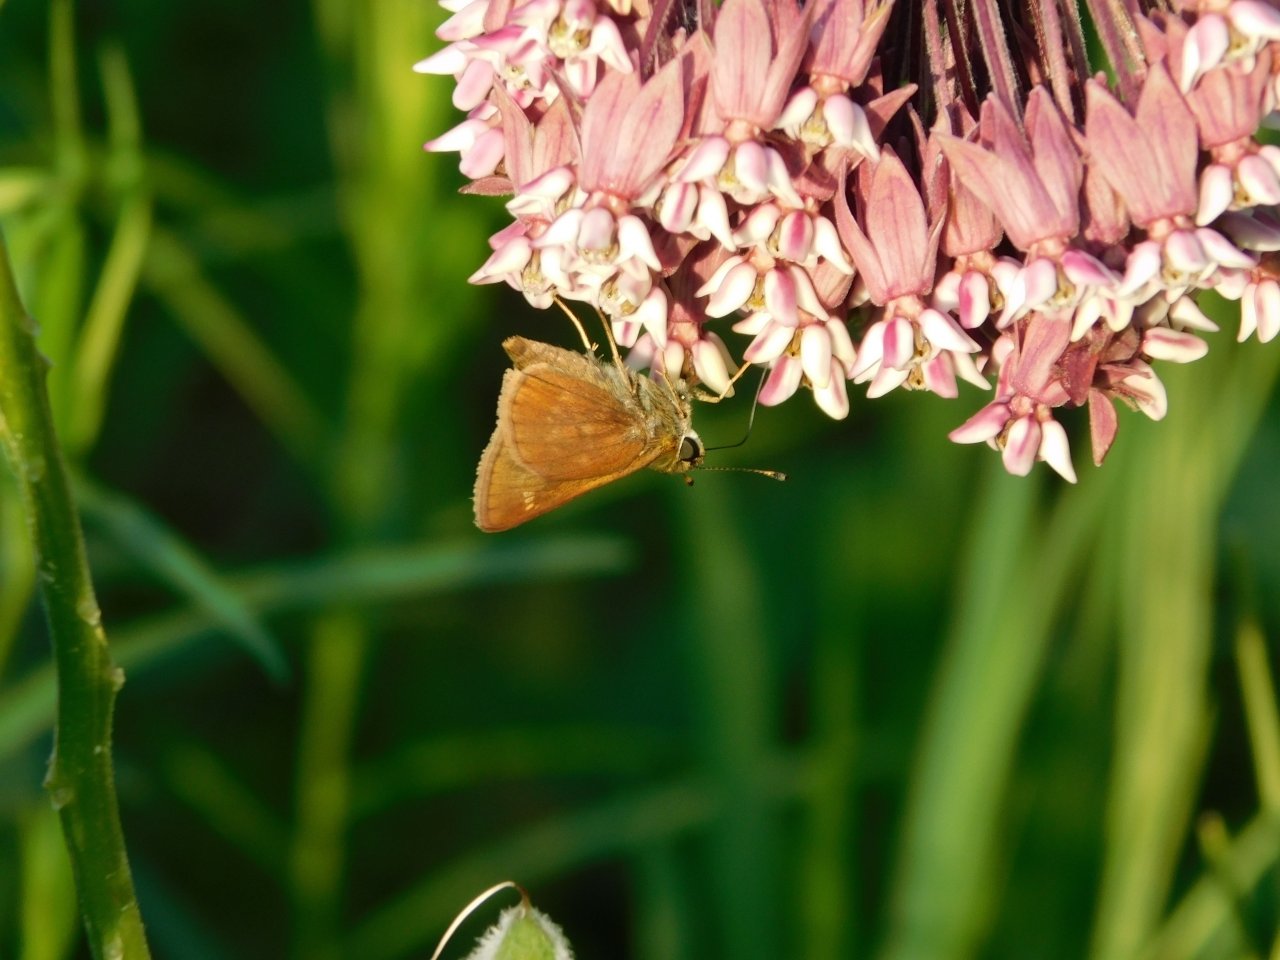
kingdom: Animalia
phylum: Arthropoda
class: Insecta
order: Lepidoptera
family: Hesperiidae
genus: Vernia
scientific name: Vernia verna
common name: Little Glassywing
